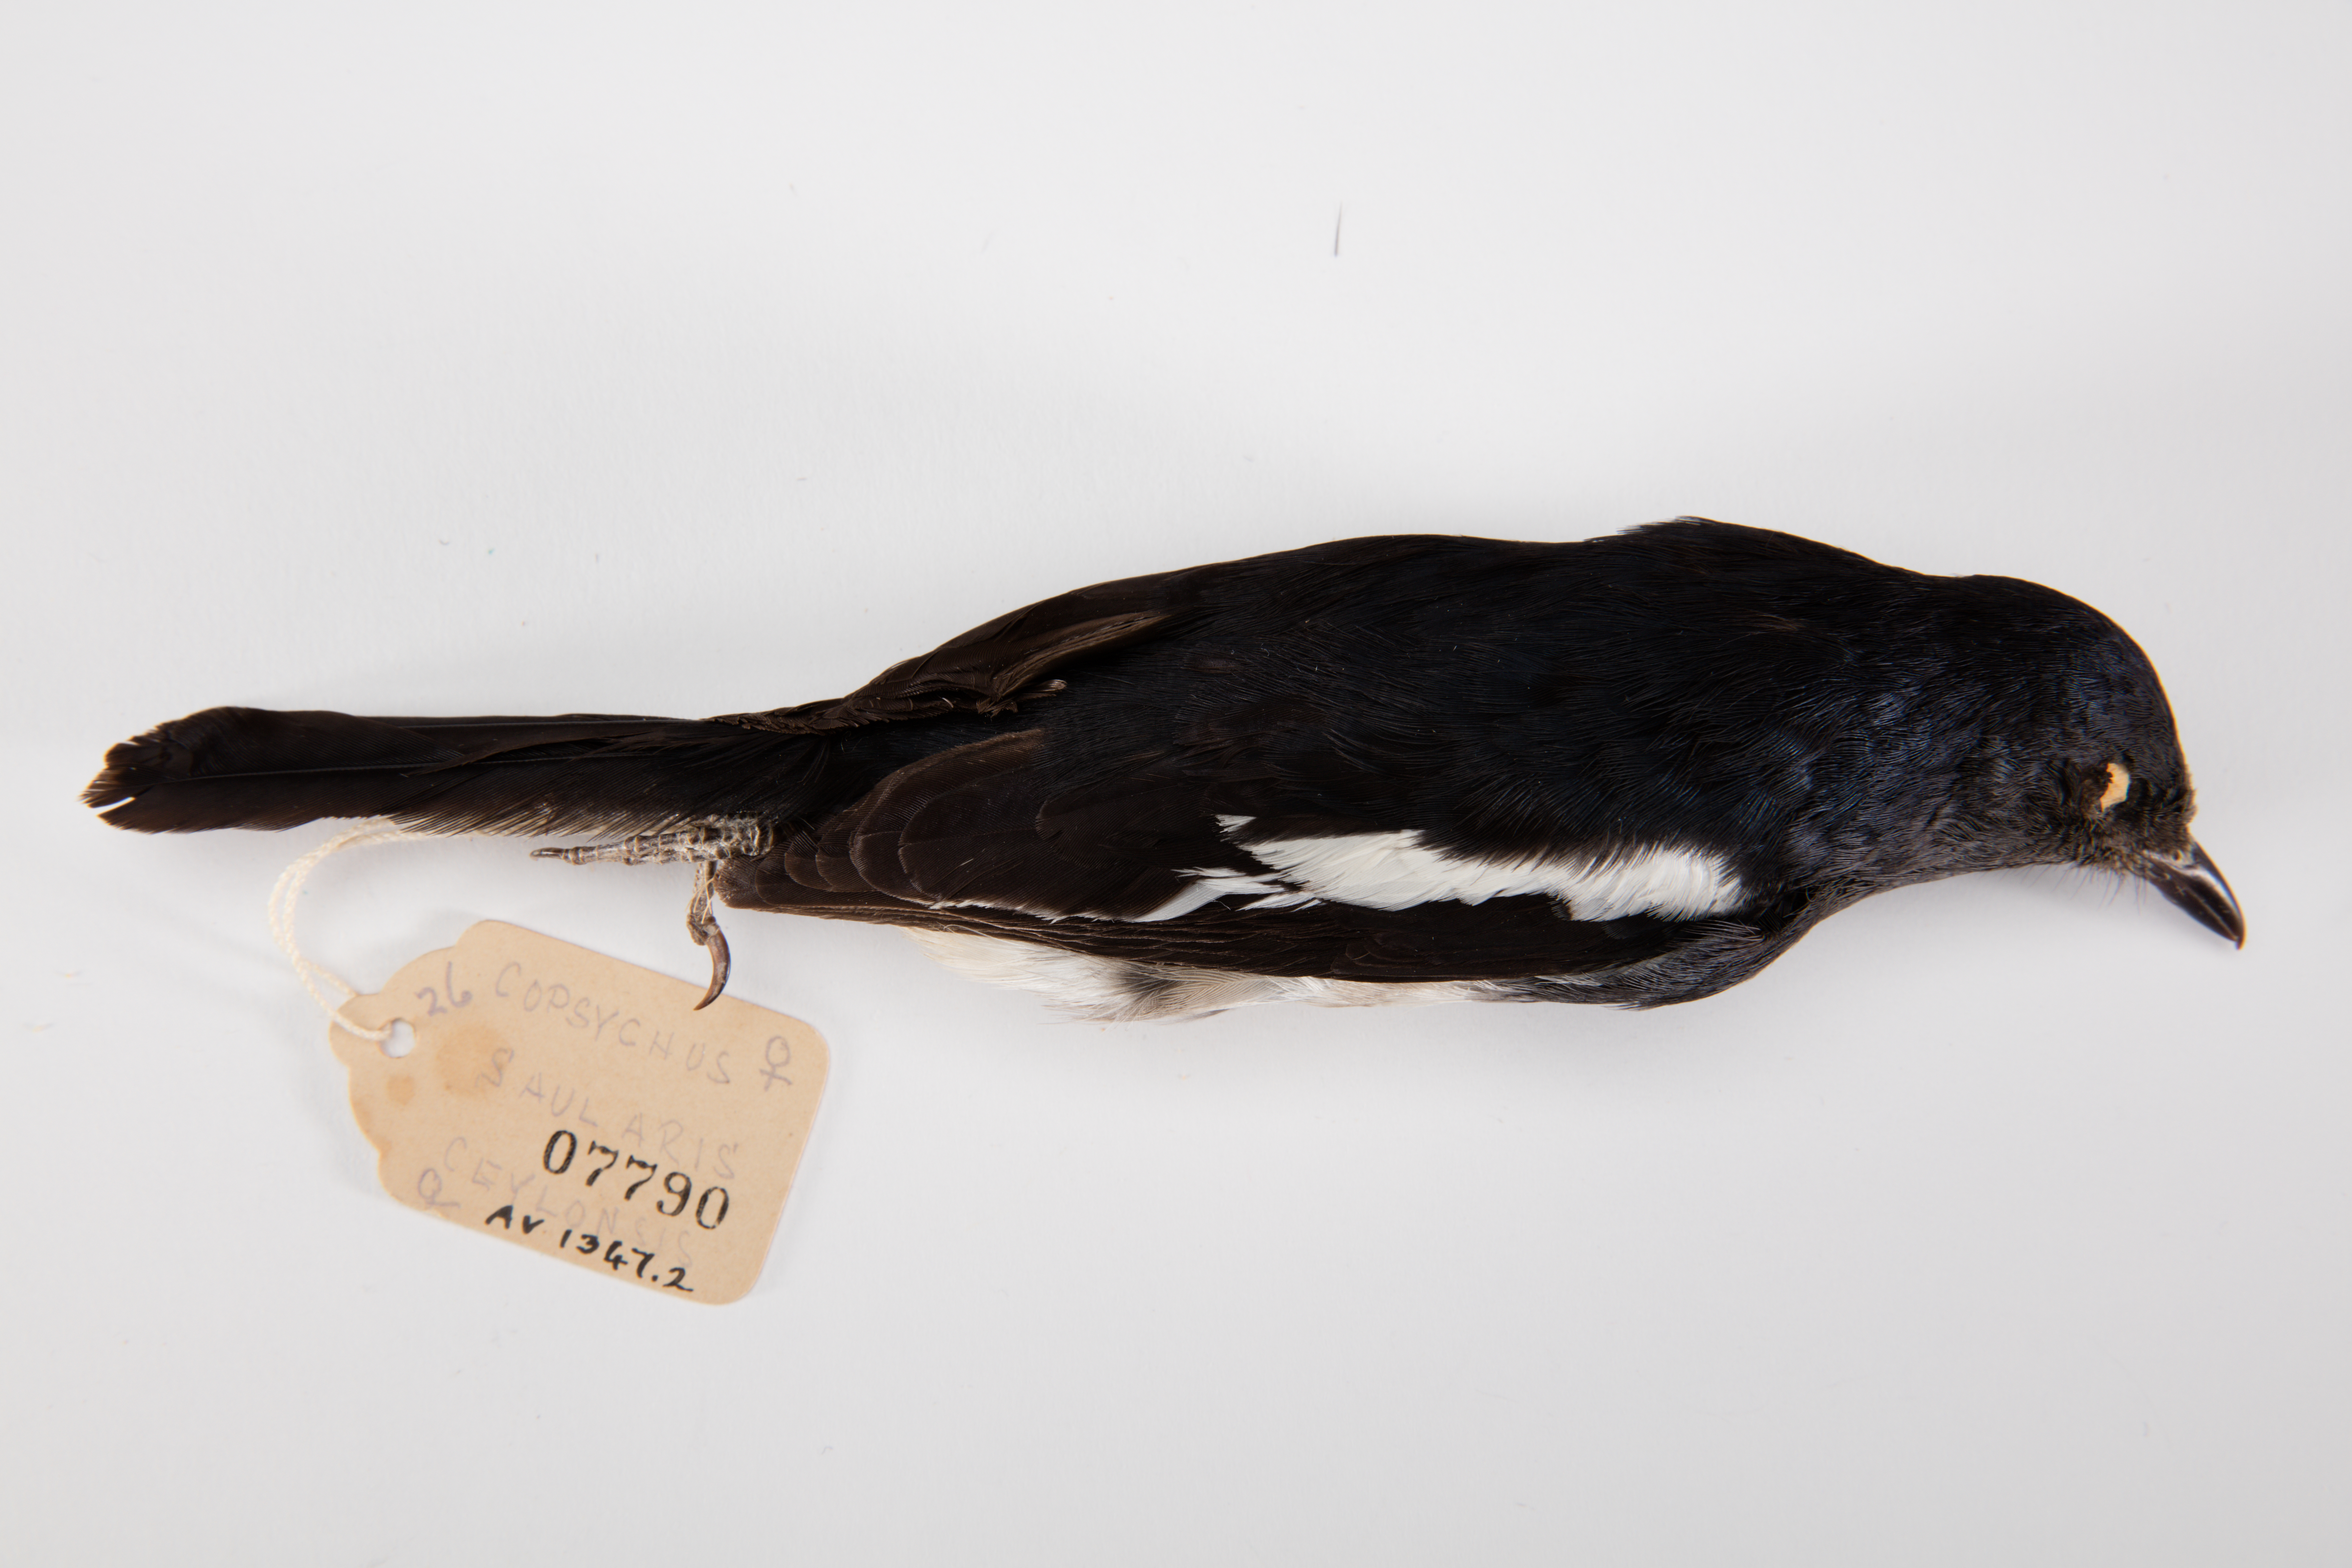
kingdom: Animalia
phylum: Chordata
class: Aves
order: Passeriformes
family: Muscicapidae
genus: Copsychus
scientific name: Copsychus saularis
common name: Oriental magpie-robin
